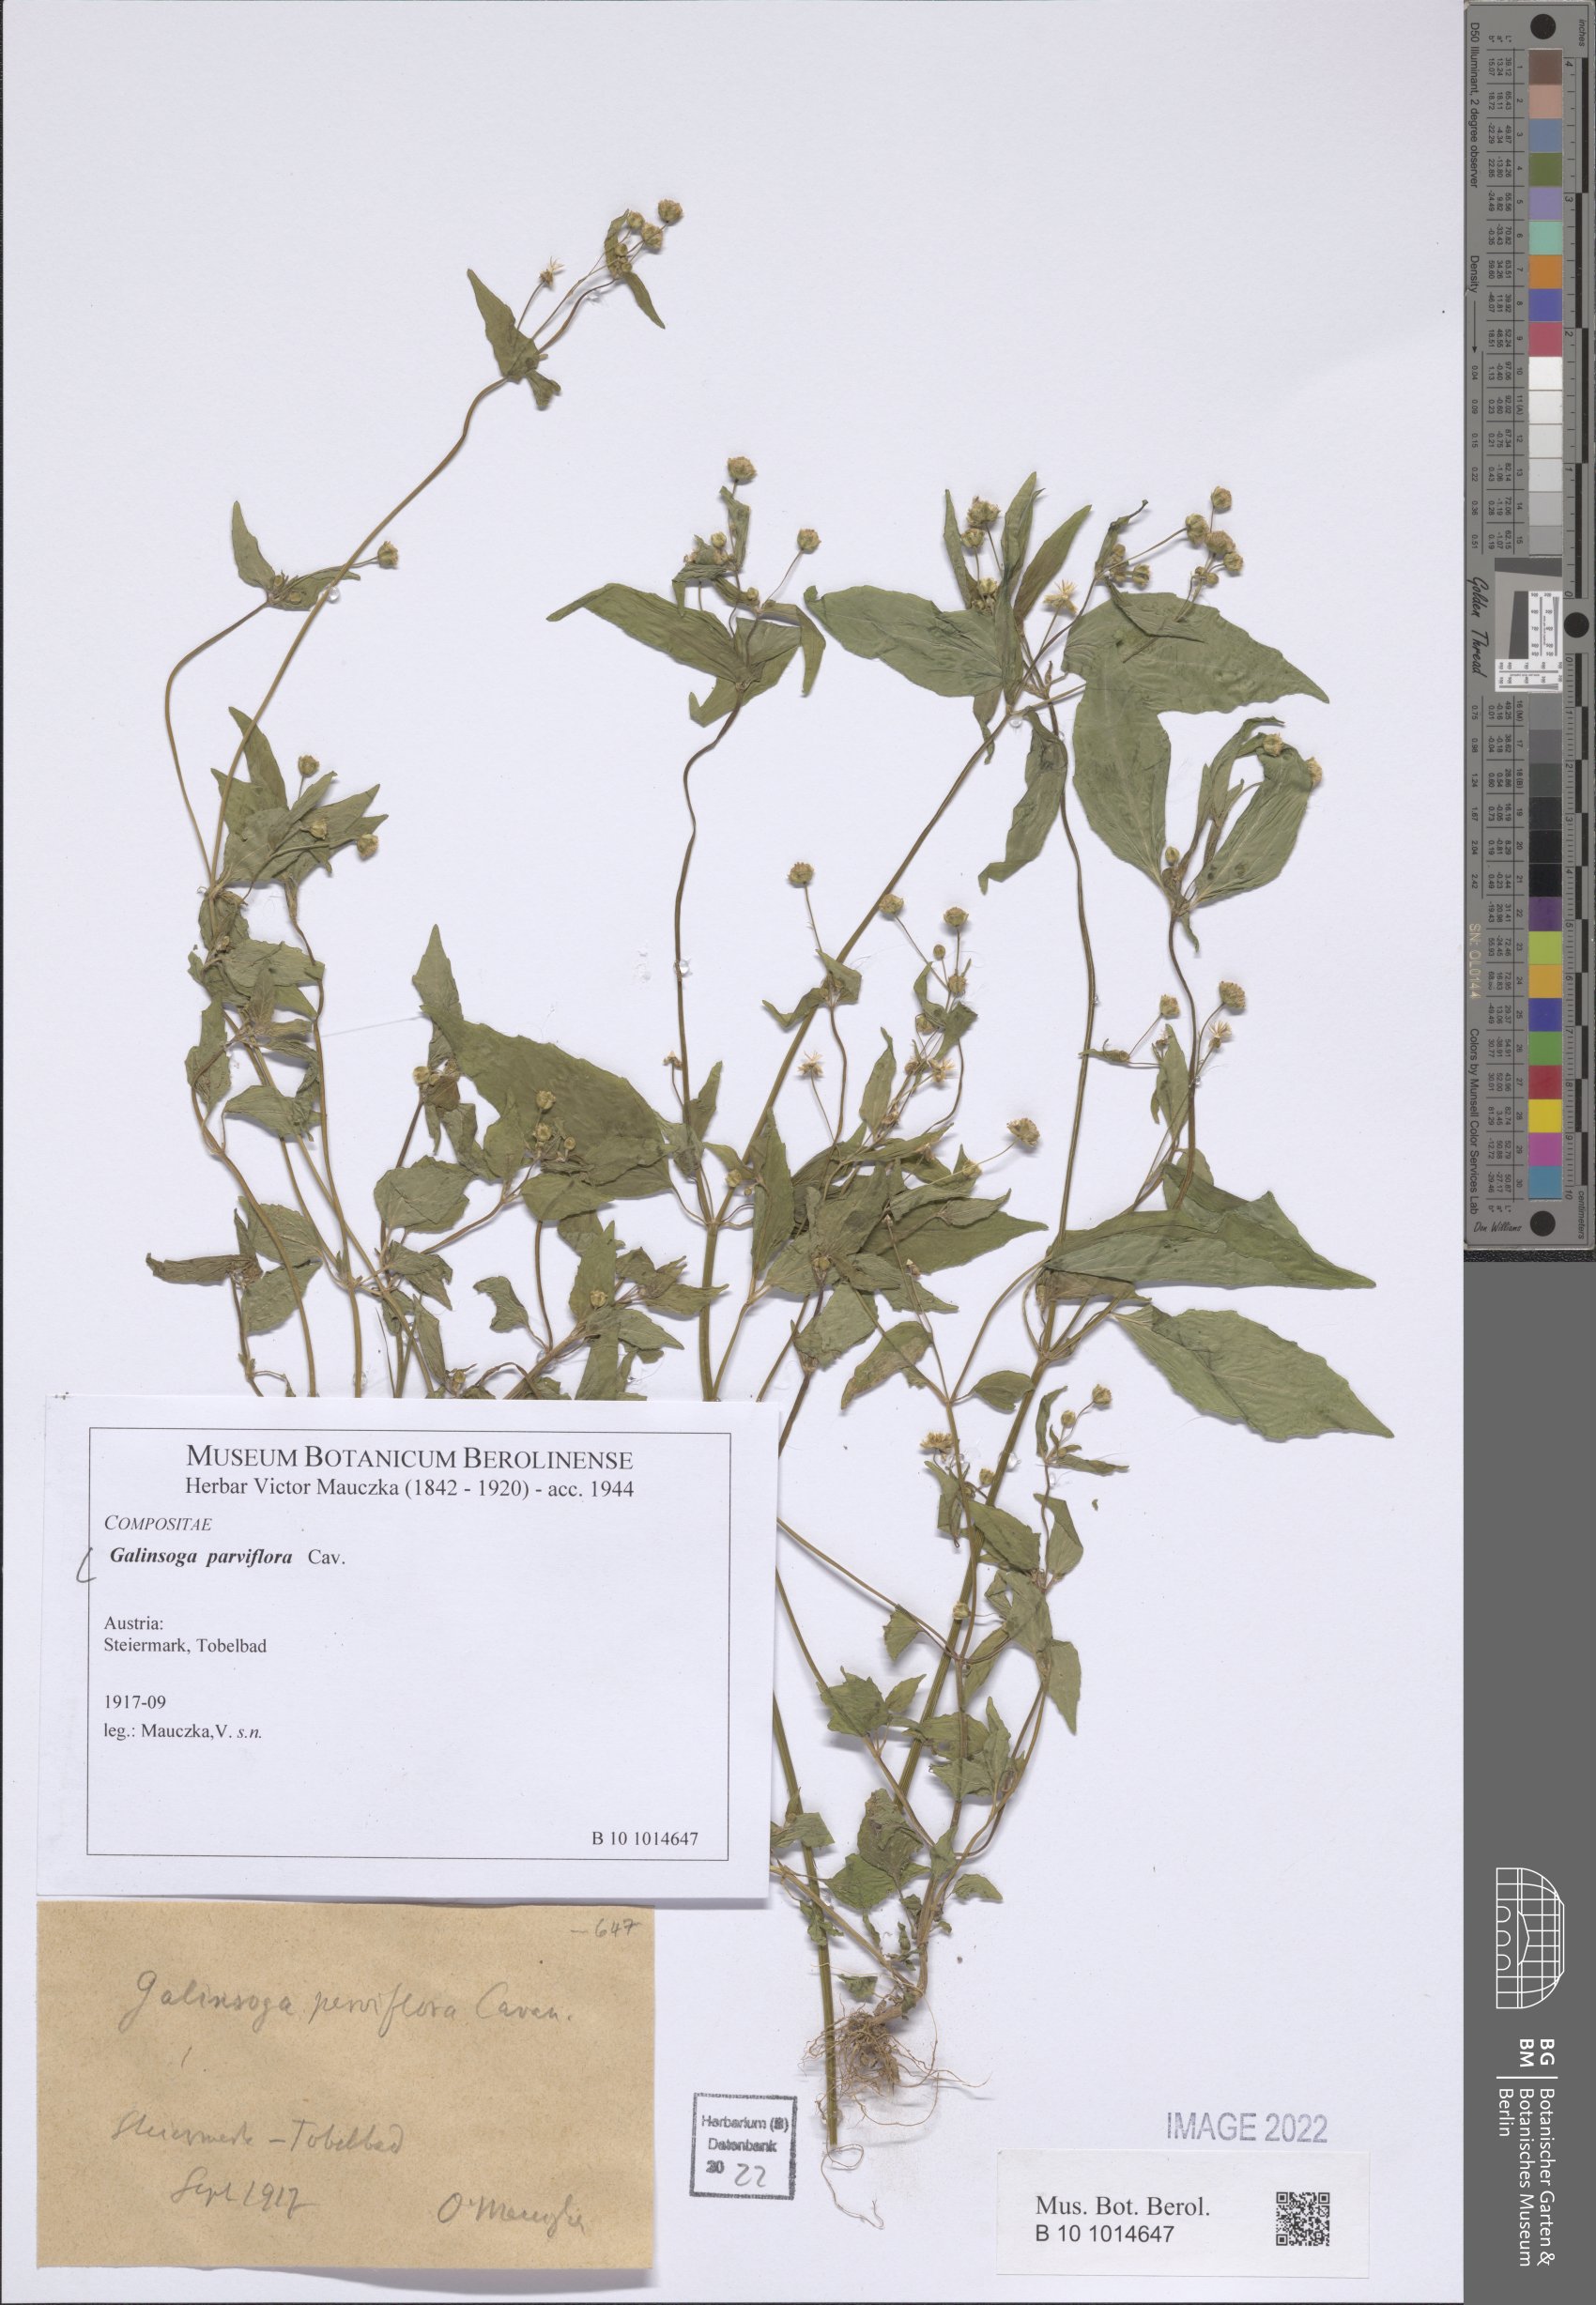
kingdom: Plantae
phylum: Tracheophyta
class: Magnoliopsida
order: Asterales
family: Asteraceae
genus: Galinsoga
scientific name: Galinsoga parviflora
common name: Gallant soldier
